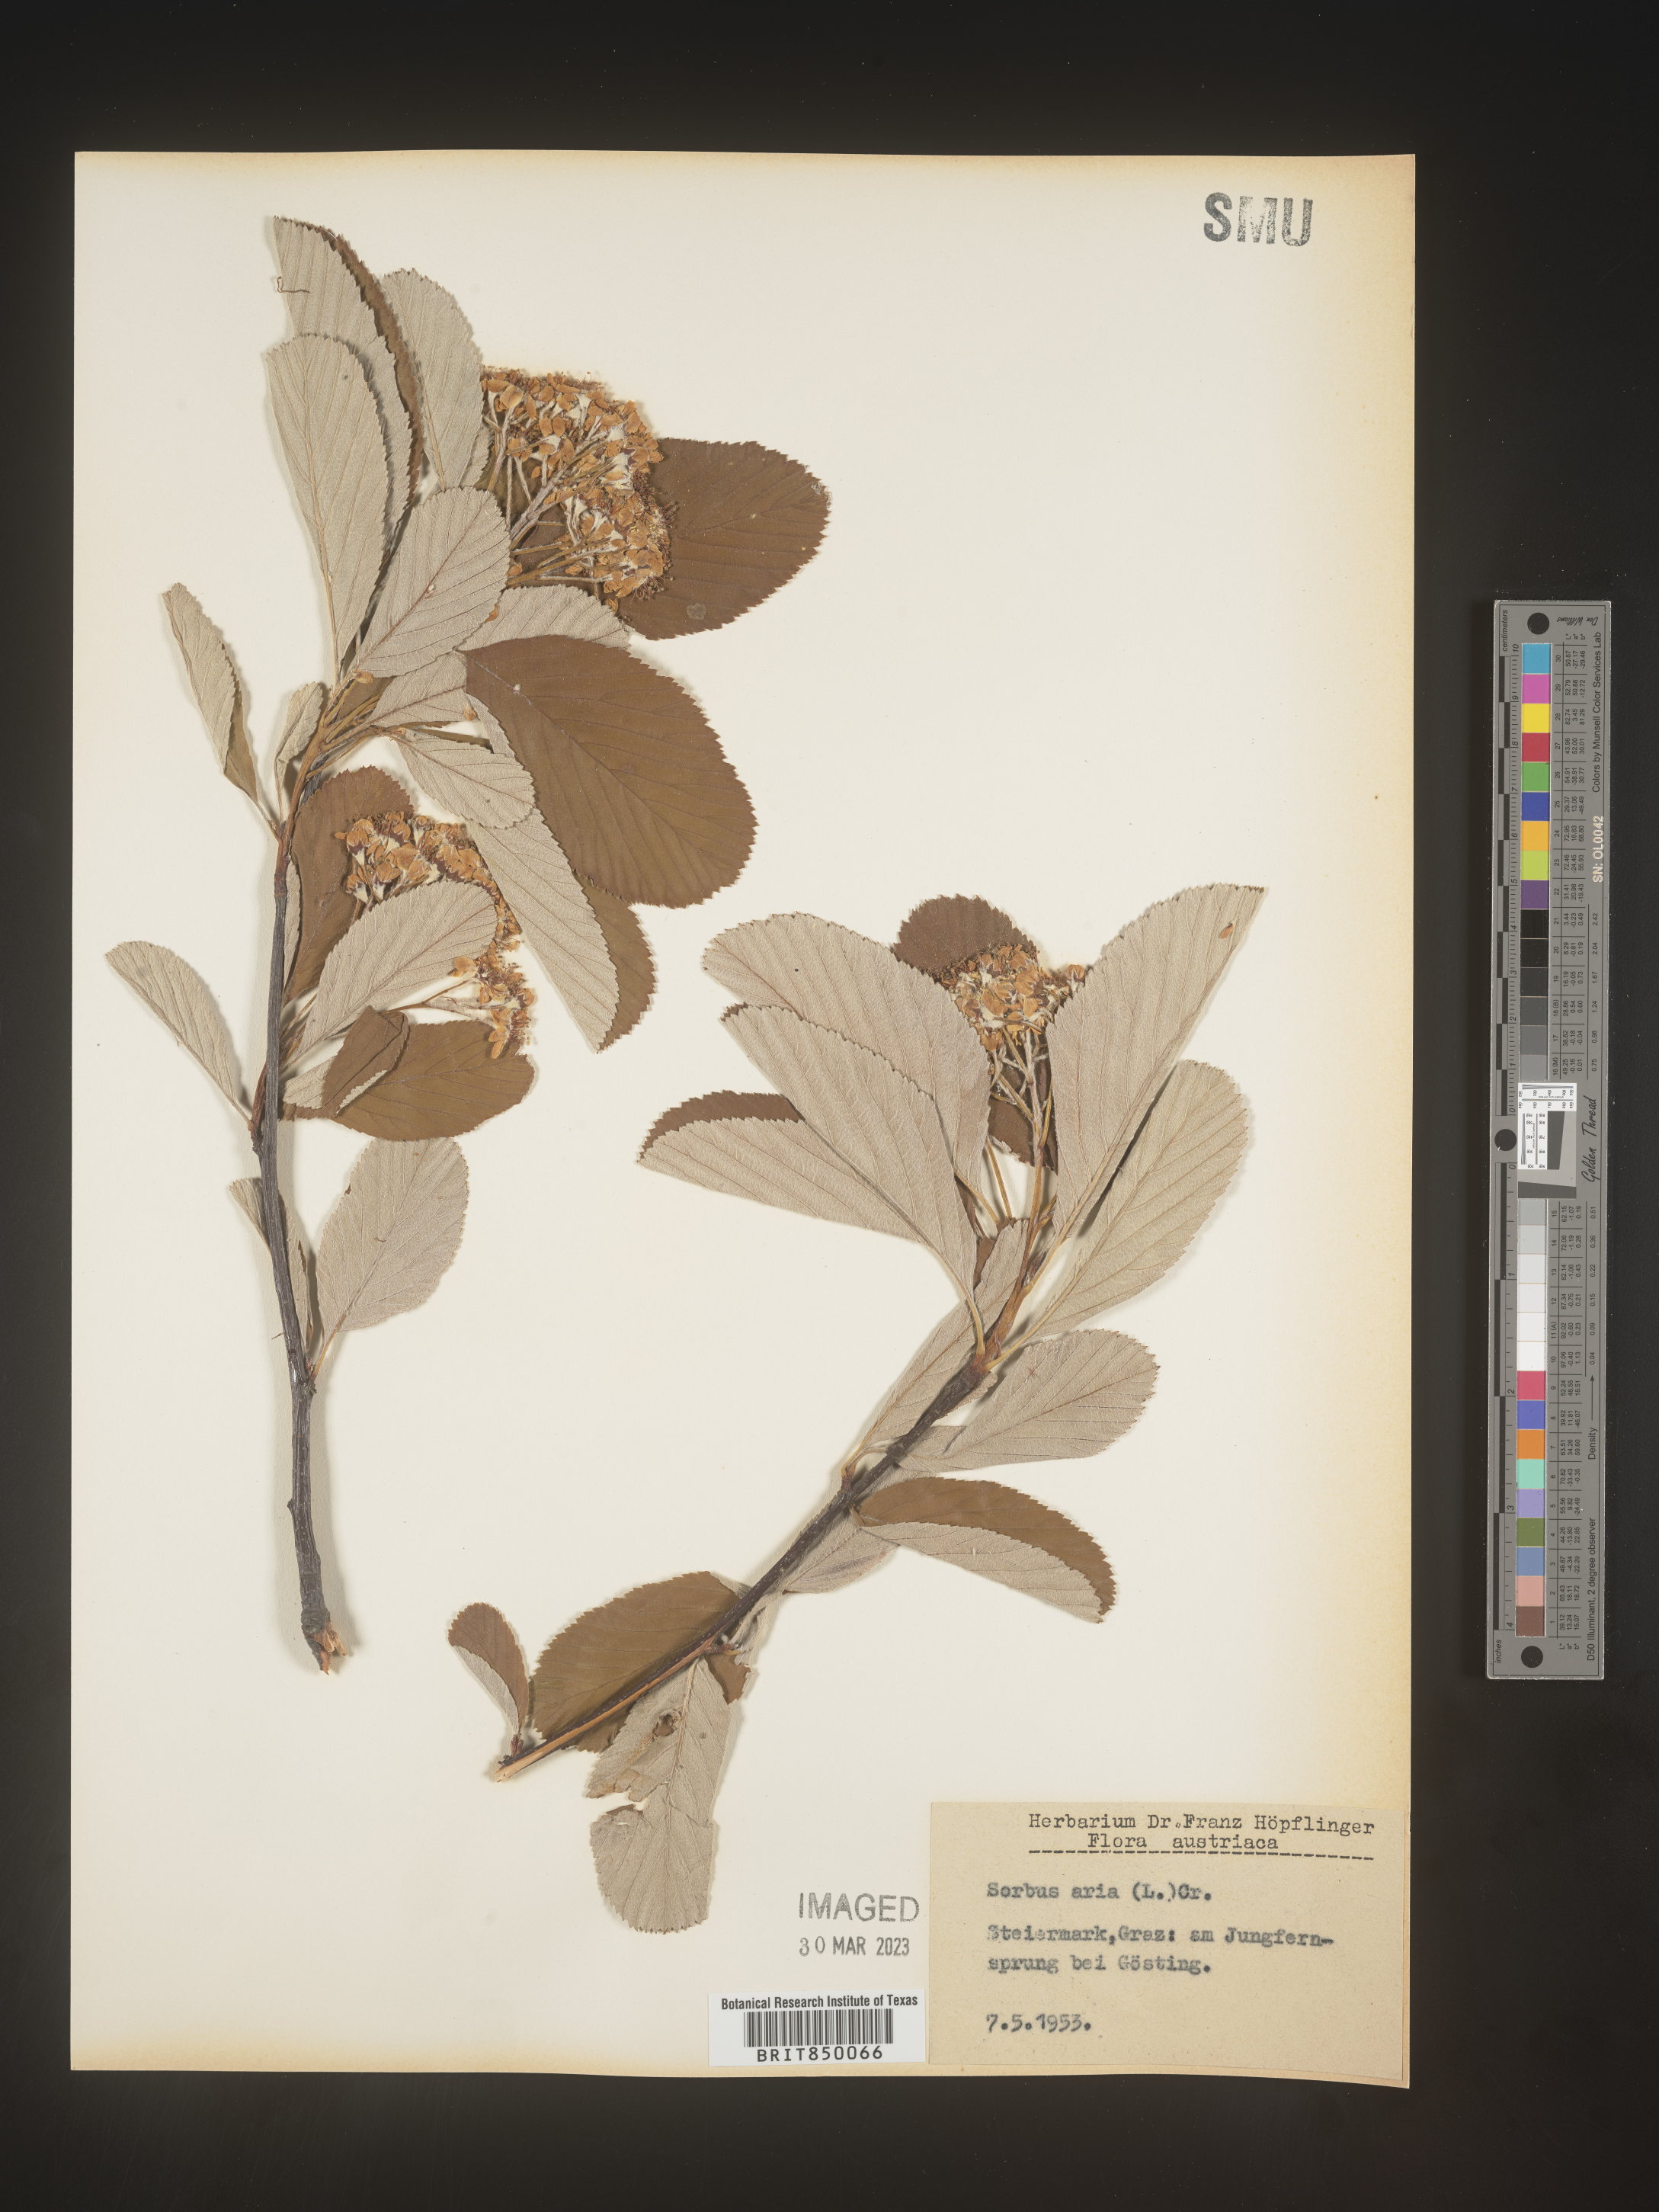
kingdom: Plantae
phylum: Tracheophyta
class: Magnoliopsida
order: Rosales
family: Rosaceae
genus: Sorbus
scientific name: Sorbus
